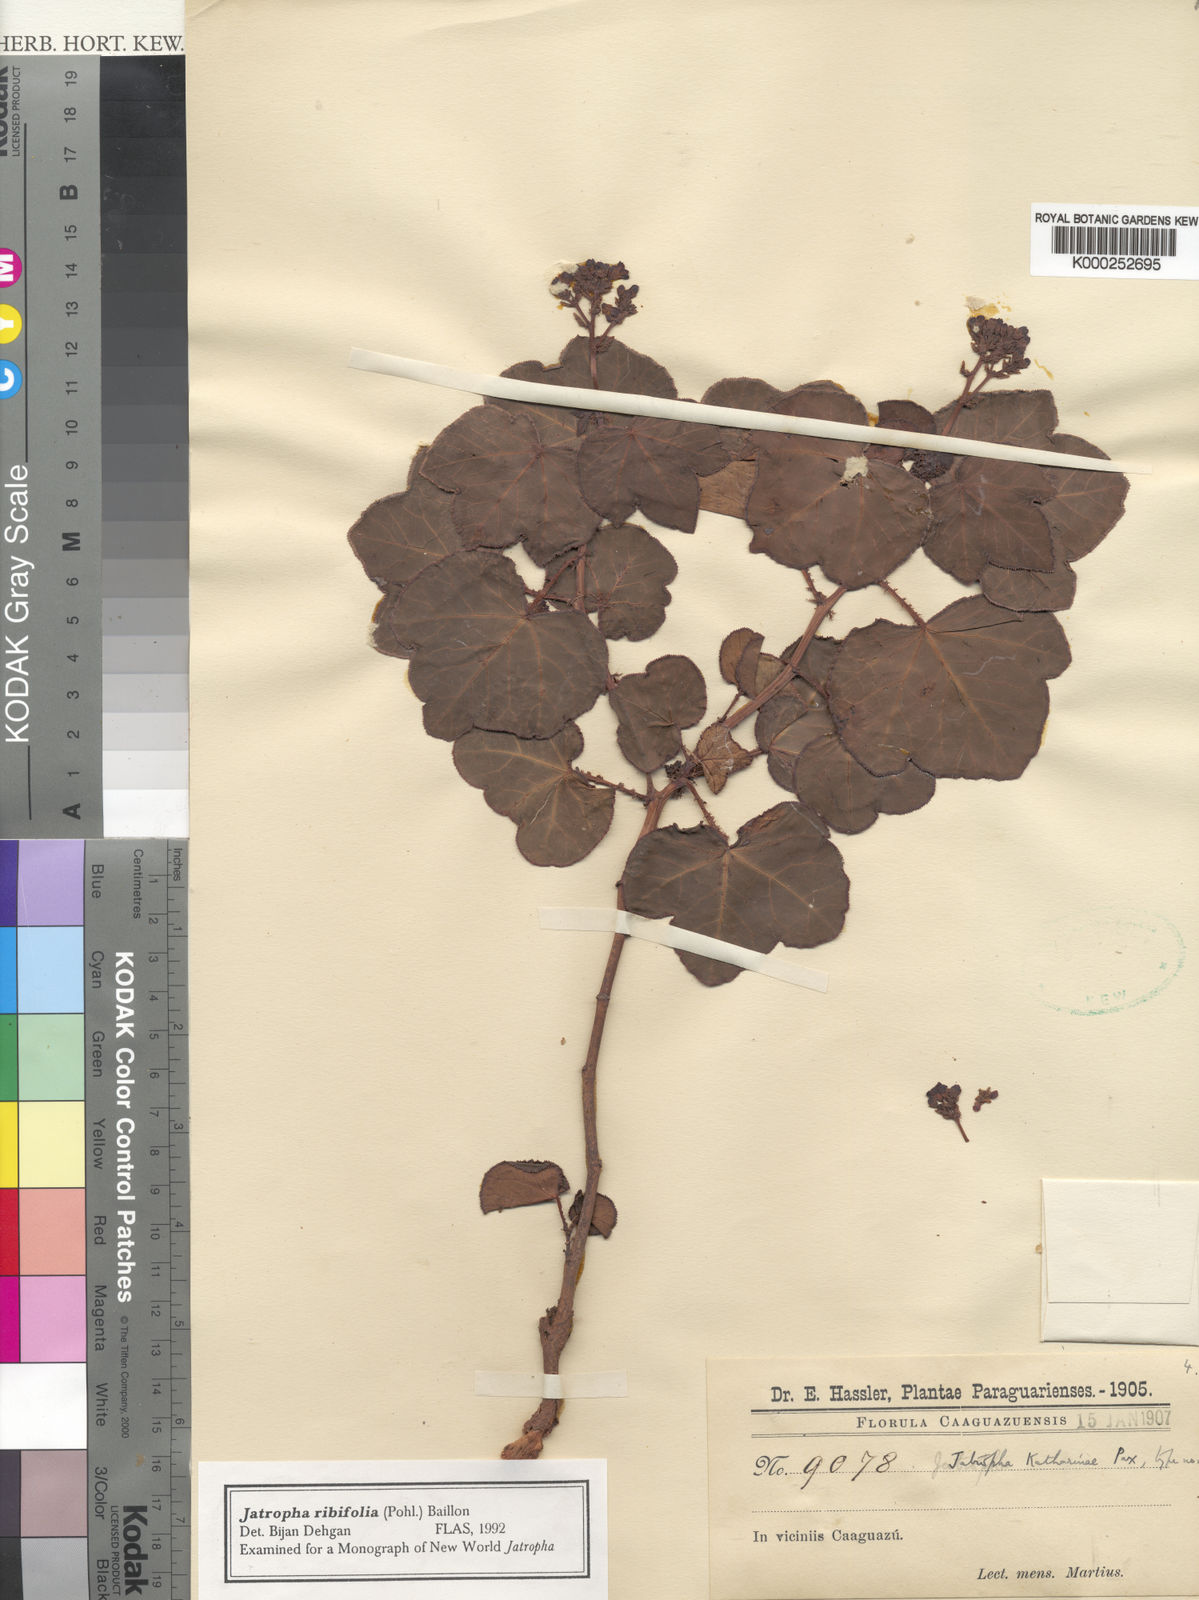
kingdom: Plantae
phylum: Tracheophyta
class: Magnoliopsida
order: Malpighiales
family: Euphorbiaceae
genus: Jatropha
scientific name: Jatropha ribifolia
